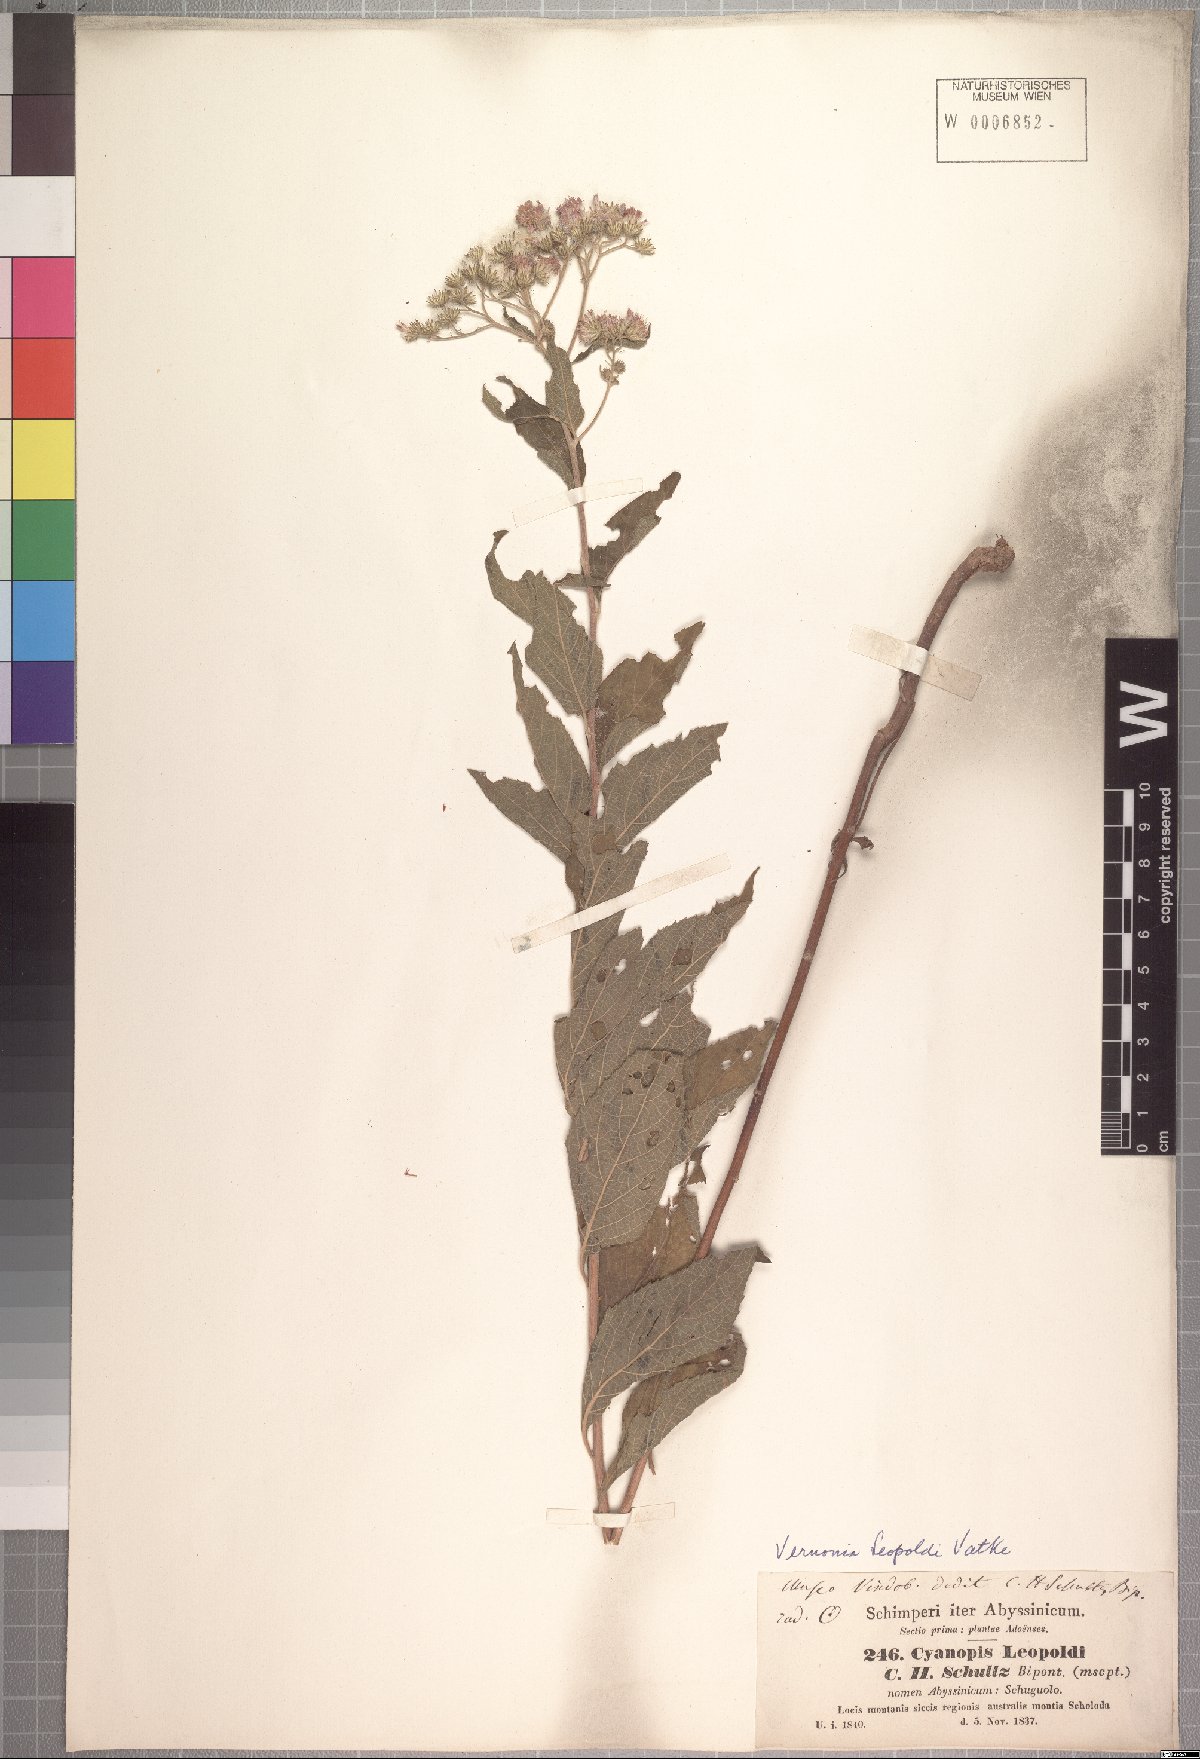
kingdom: Plantae
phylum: Tracheophyta
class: Magnoliopsida
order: Asterales
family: Asteraceae
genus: Vernonia
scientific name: Vernonia bipontini
